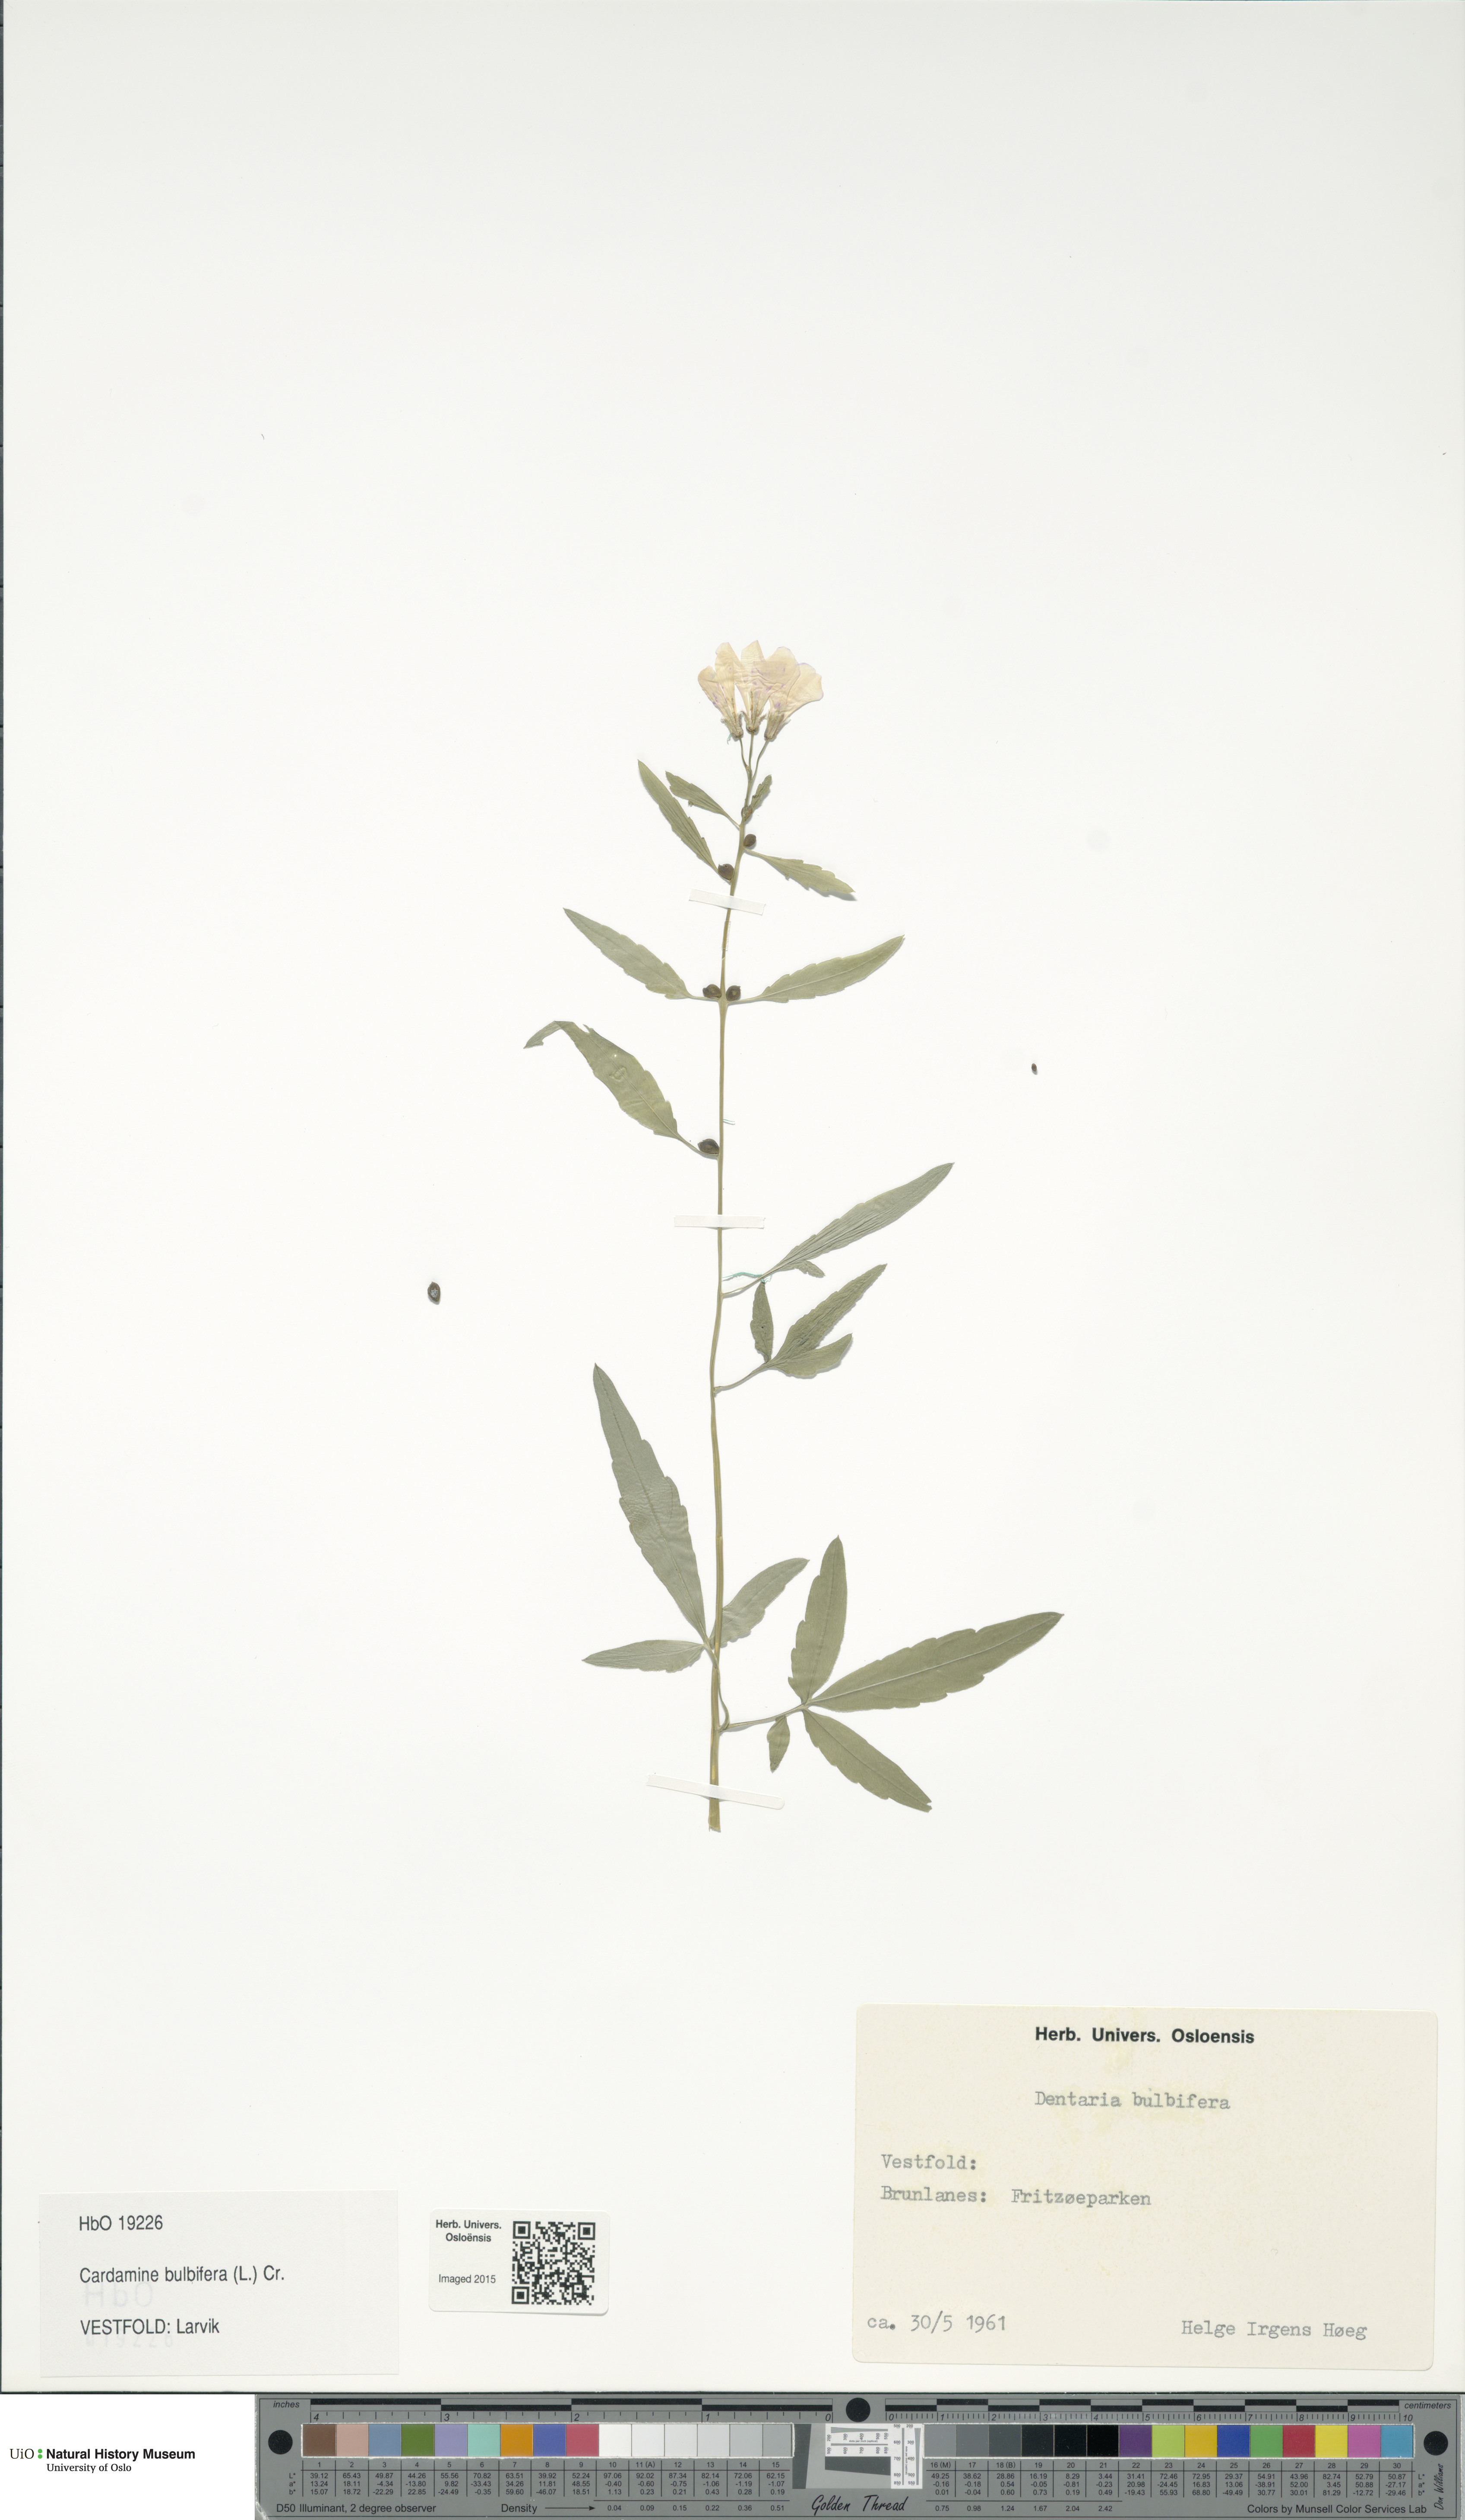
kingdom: Plantae
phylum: Tracheophyta
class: Magnoliopsida
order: Brassicales
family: Brassicaceae
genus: Cardamine
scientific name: Cardamine bulbifera
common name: Coralroot bittercress
